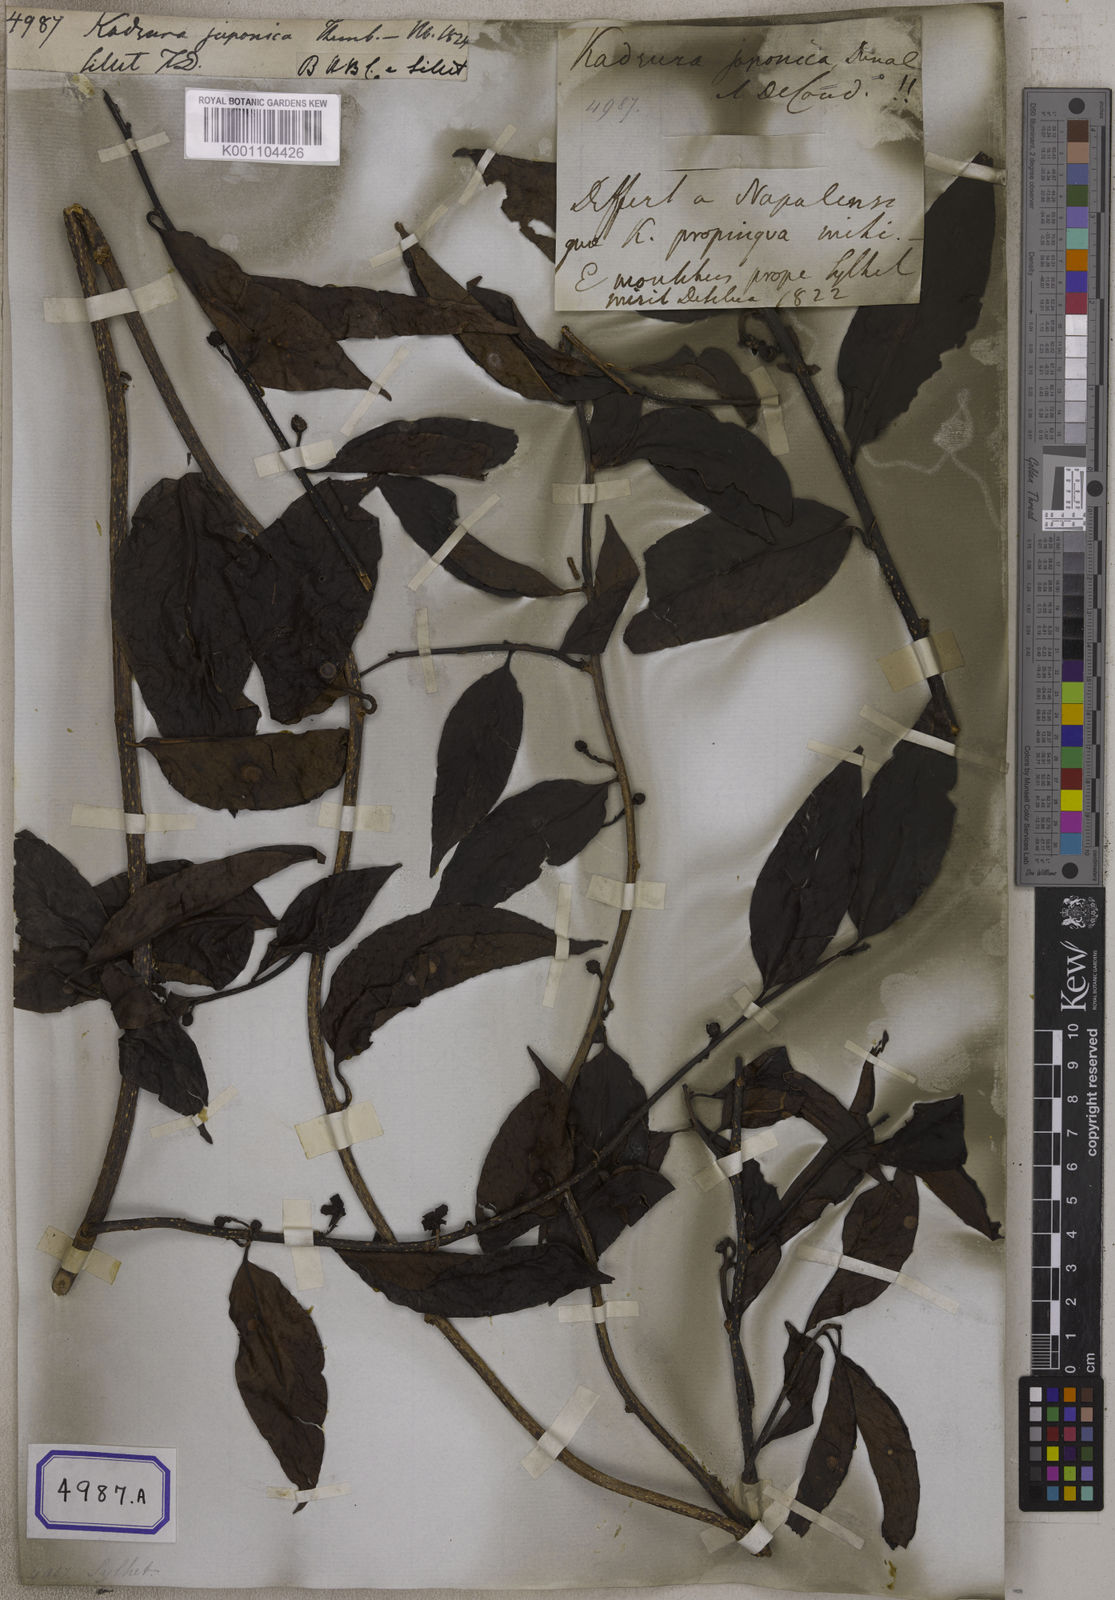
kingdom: Plantae
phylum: Tracheophyta
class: Magnoliopsida
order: Austrobaileyales
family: Schisandraceae
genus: Kadsura
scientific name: Kadsura
